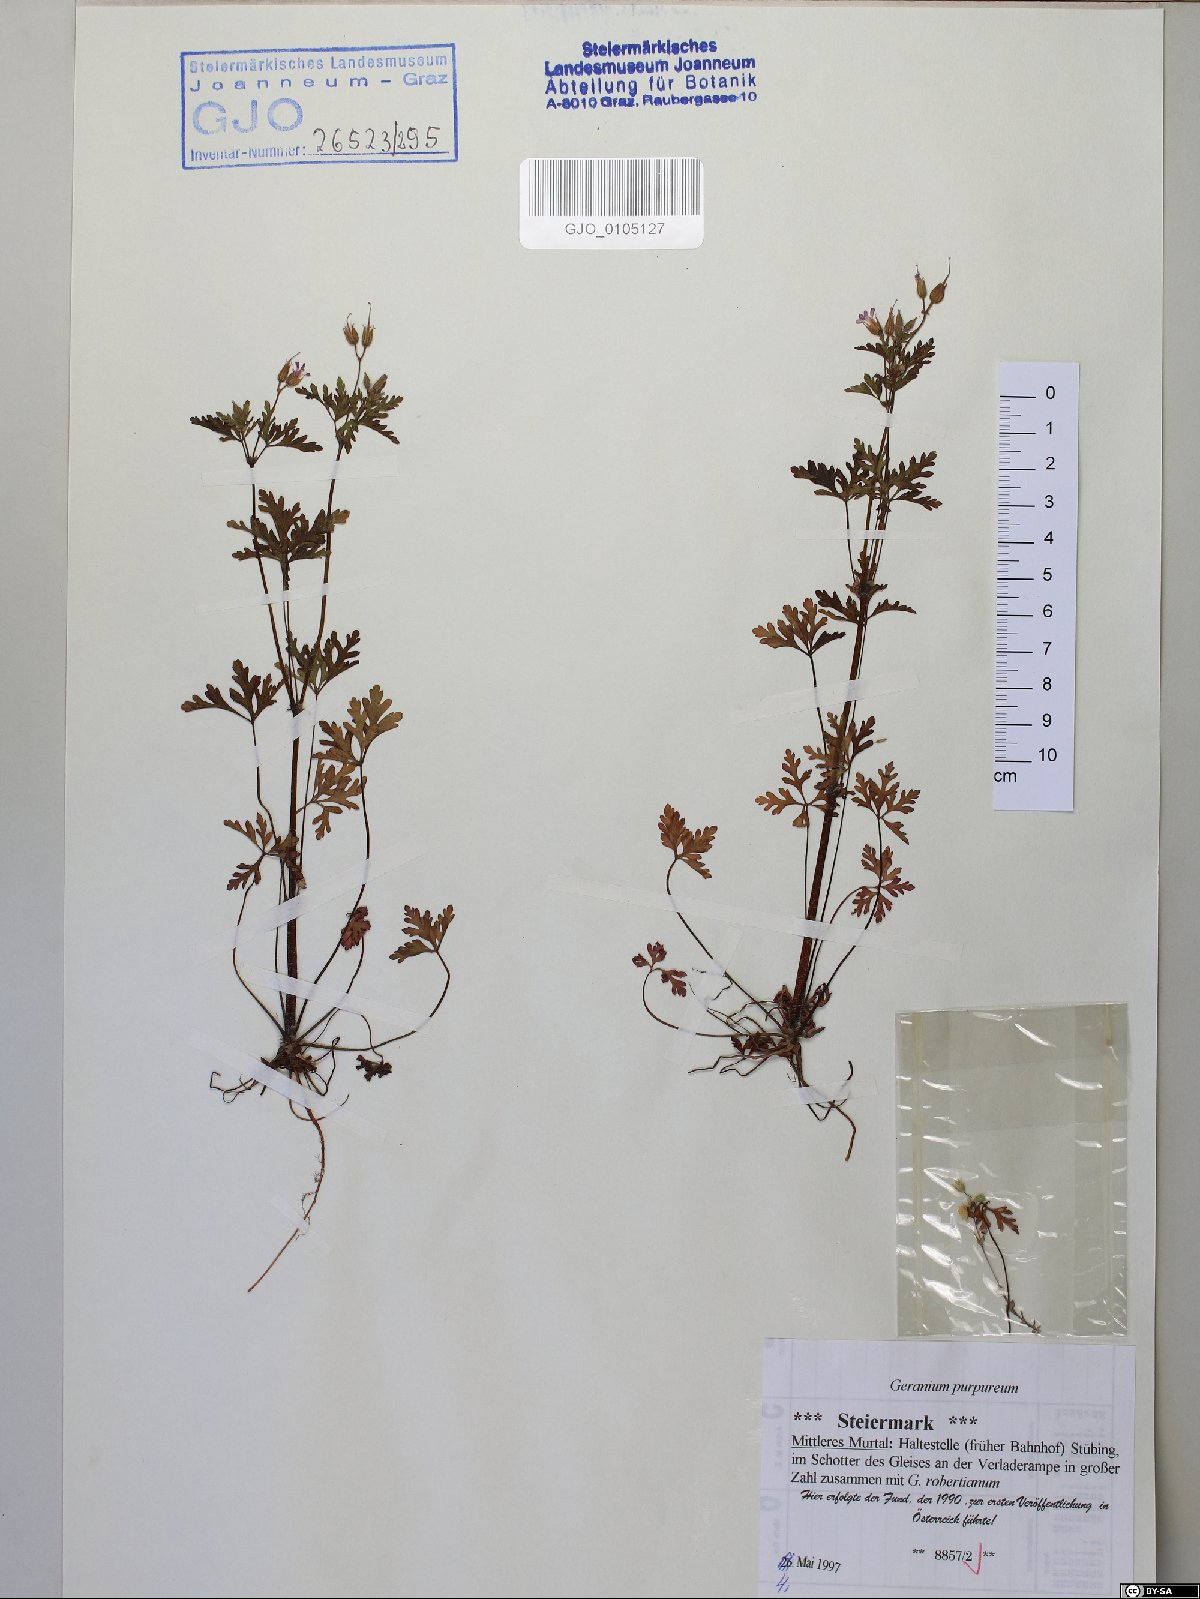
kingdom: Plantae
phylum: Tracheophyta
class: Magnoliopsida
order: Geraniales
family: Geraniaceae
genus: Geranium
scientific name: Geranium purpureum
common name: Little-robin
